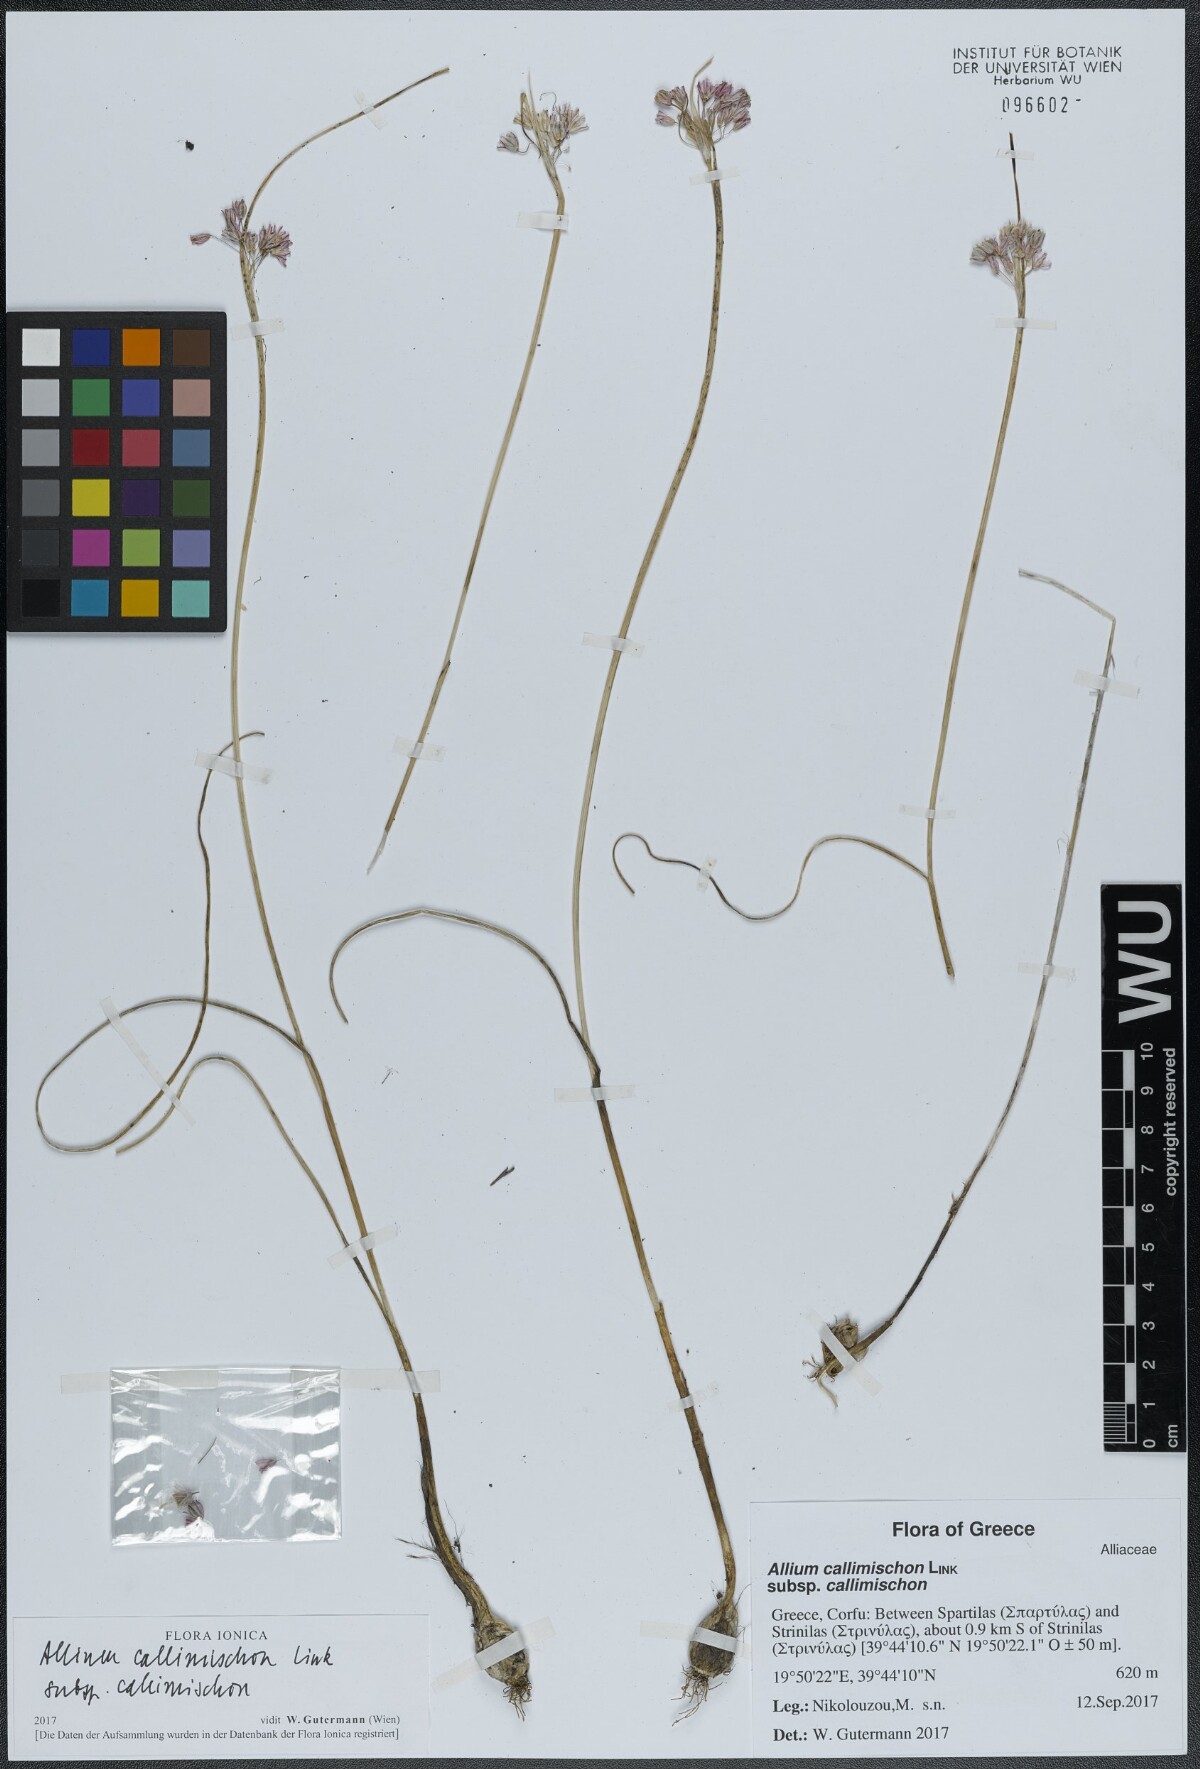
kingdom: Plantae
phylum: Tracheophyta
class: Liliopsida
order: Asparagales
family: Amaryllidaceae
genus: Allium
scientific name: Allium callimischon
